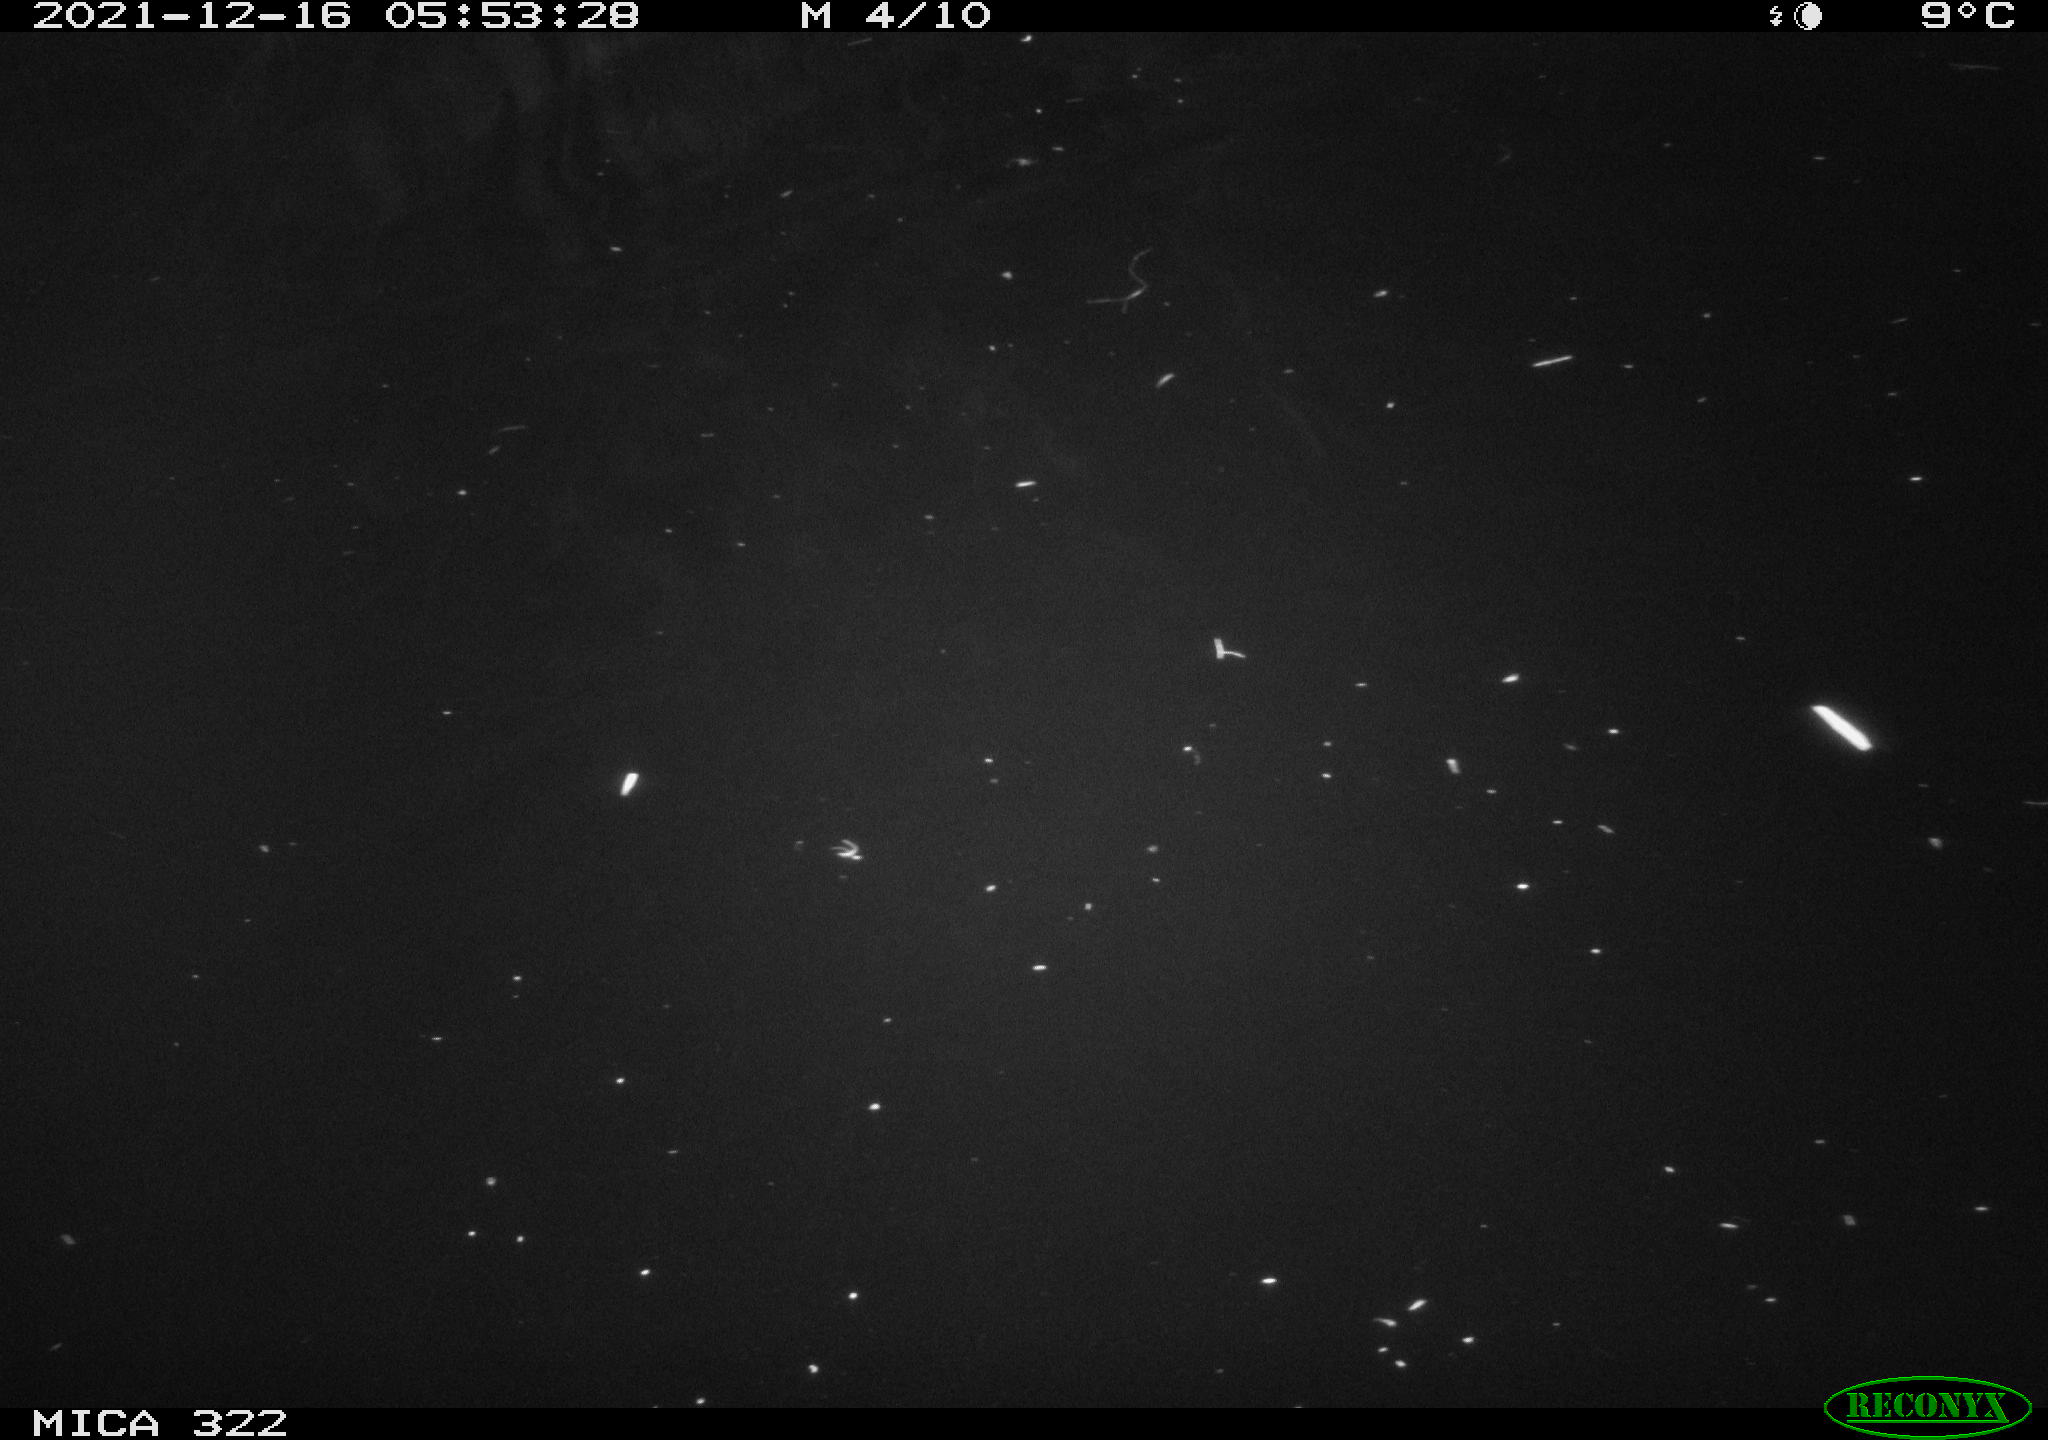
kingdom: Animalia
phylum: Chordata
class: Aves
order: Anseriformes
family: Anatidae
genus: Anas
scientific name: Anas
